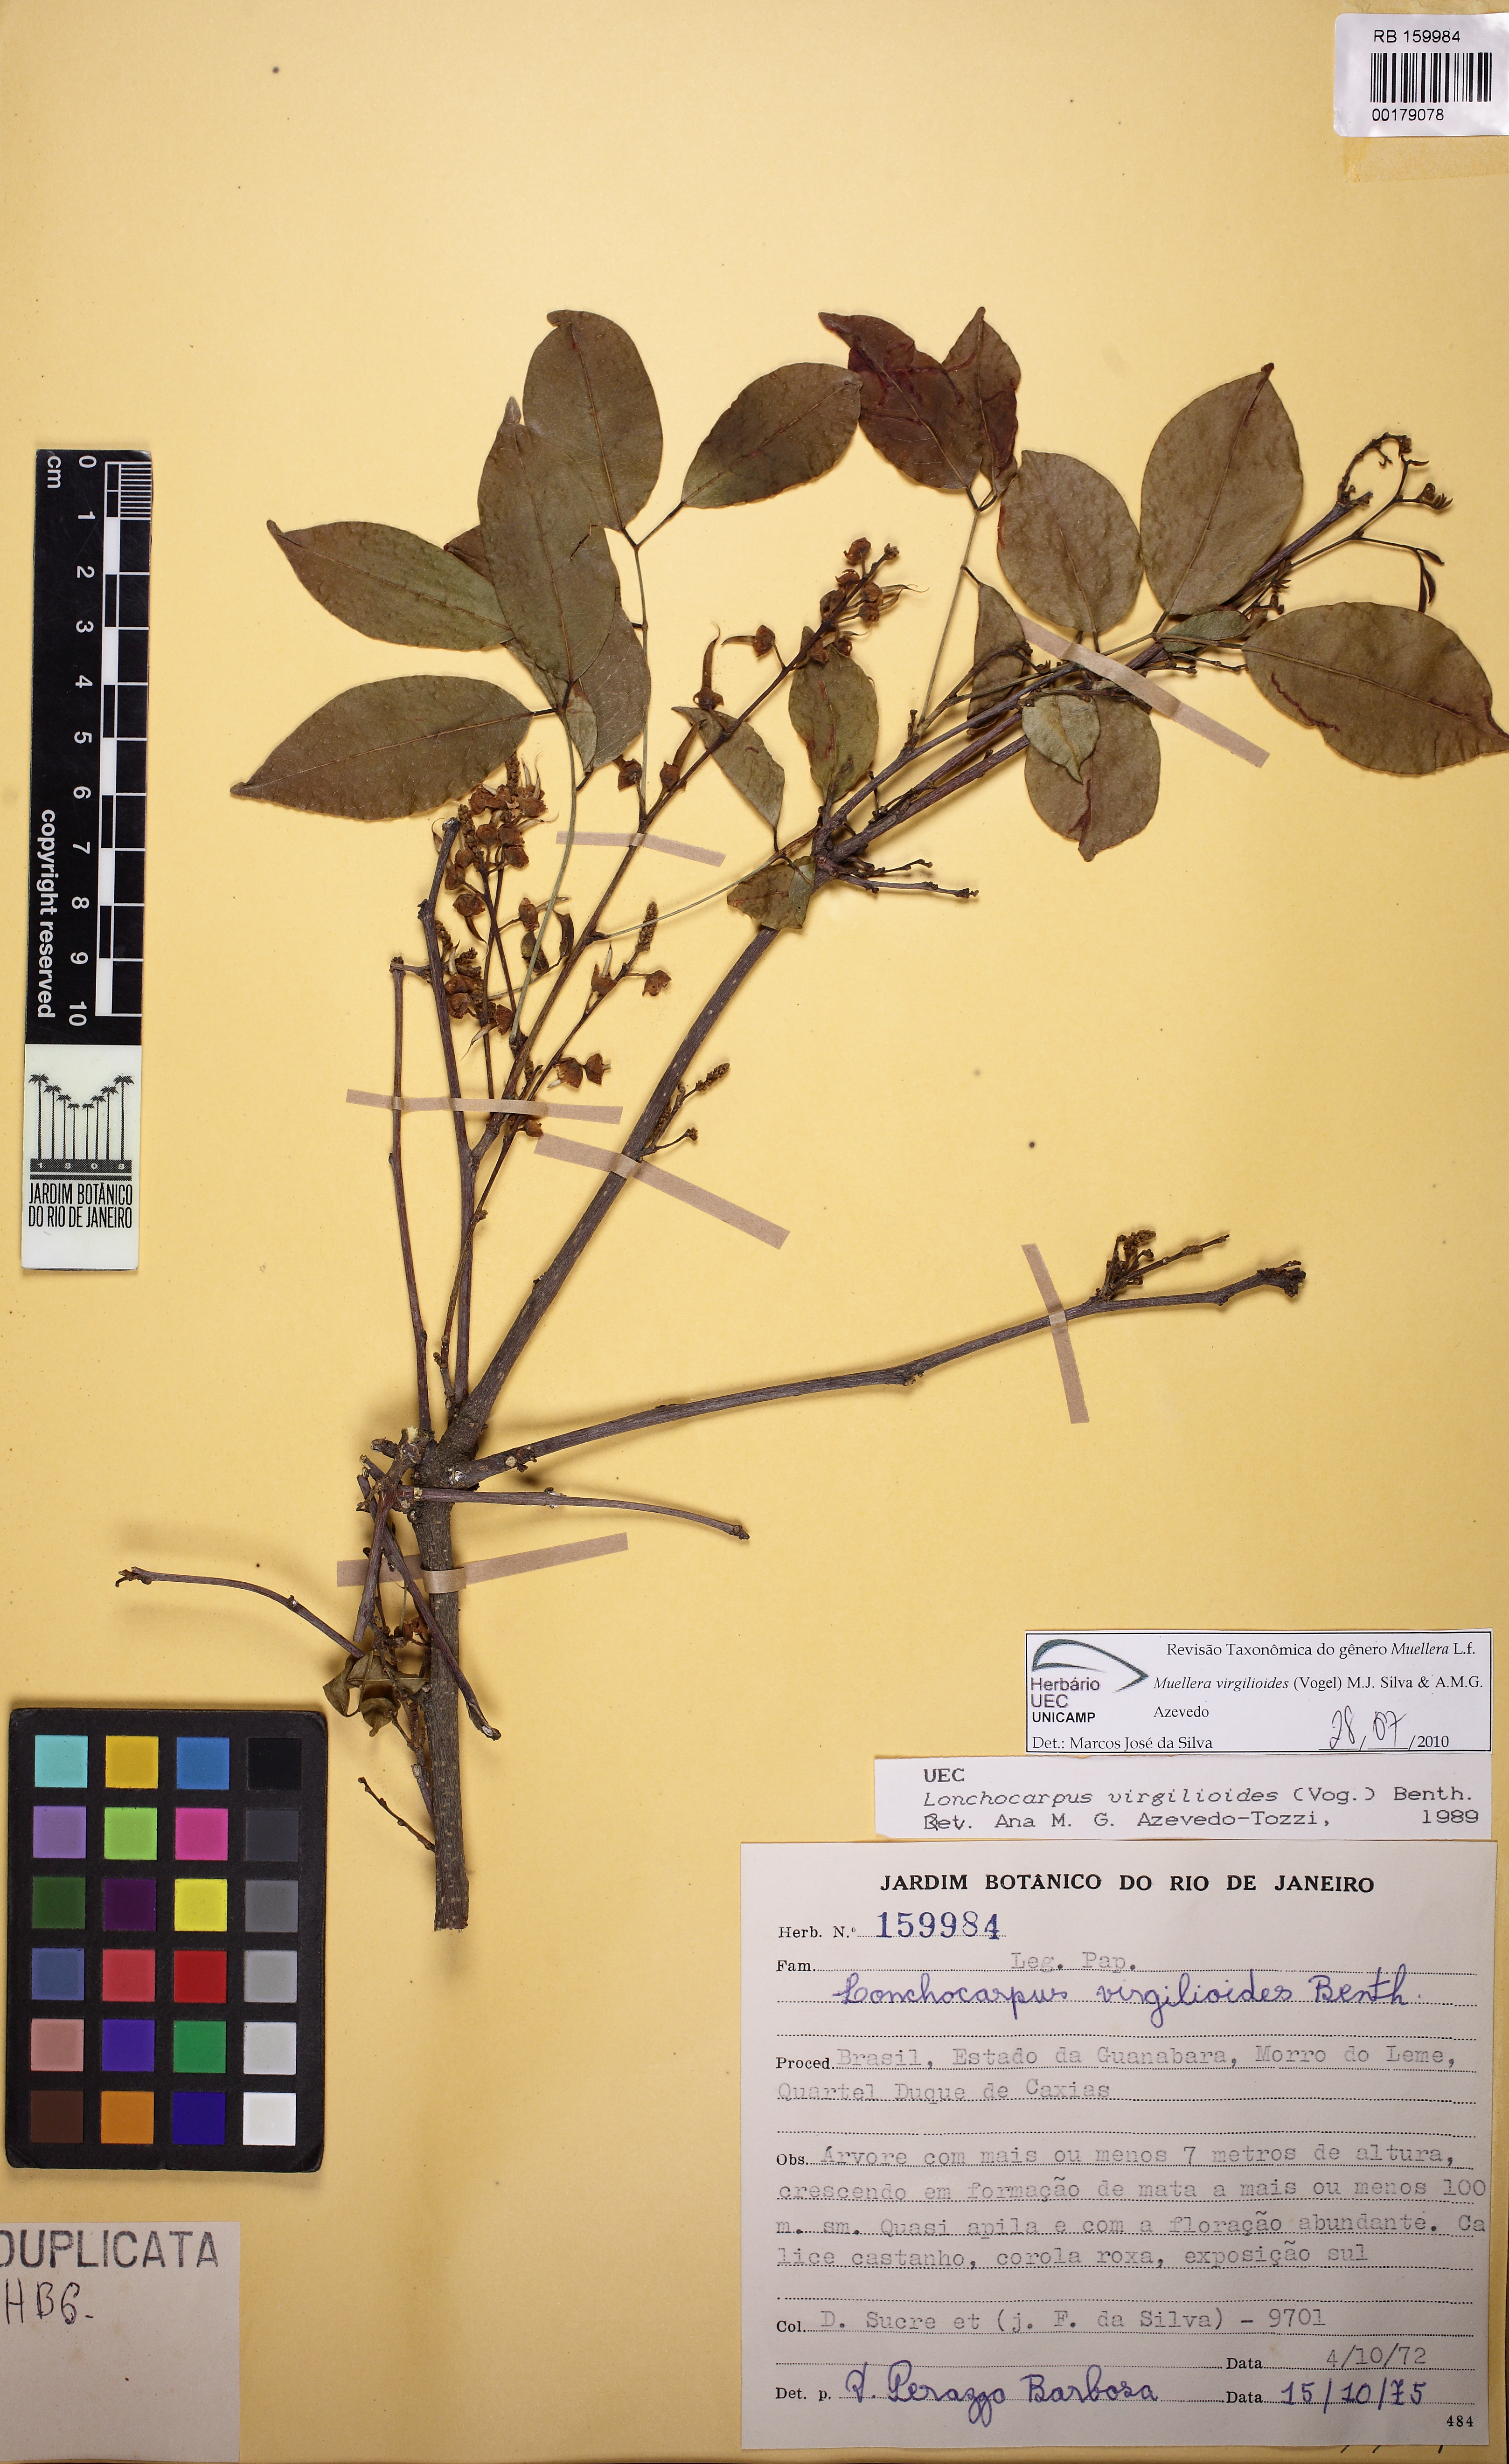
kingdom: Plantae
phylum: Tracheophyta
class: Magnoliopsida
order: Fabales
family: Fabaceae
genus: Muellera
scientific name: Muellera virgilioides
